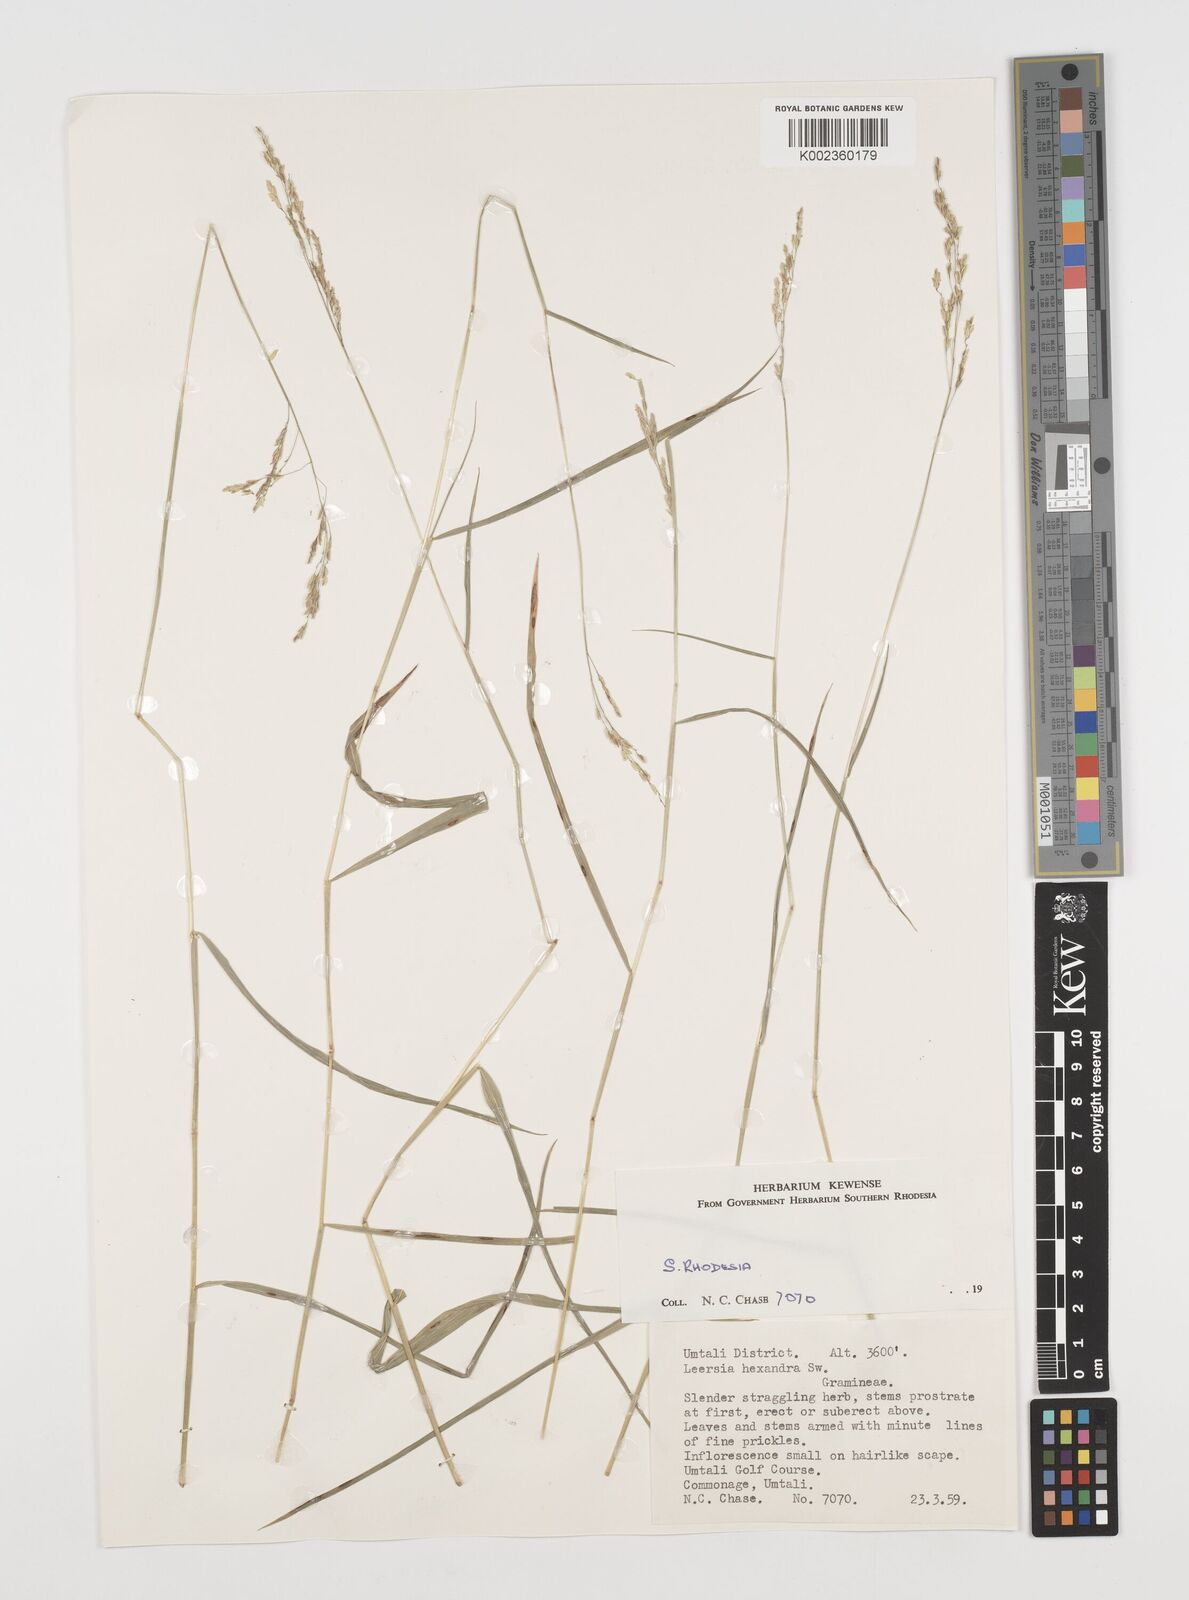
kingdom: Plantae
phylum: Tracheophyta
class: Liliopsida
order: Poales
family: Poaceae
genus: Leersia
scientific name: Leersia hexandra
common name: Southern cut grass
